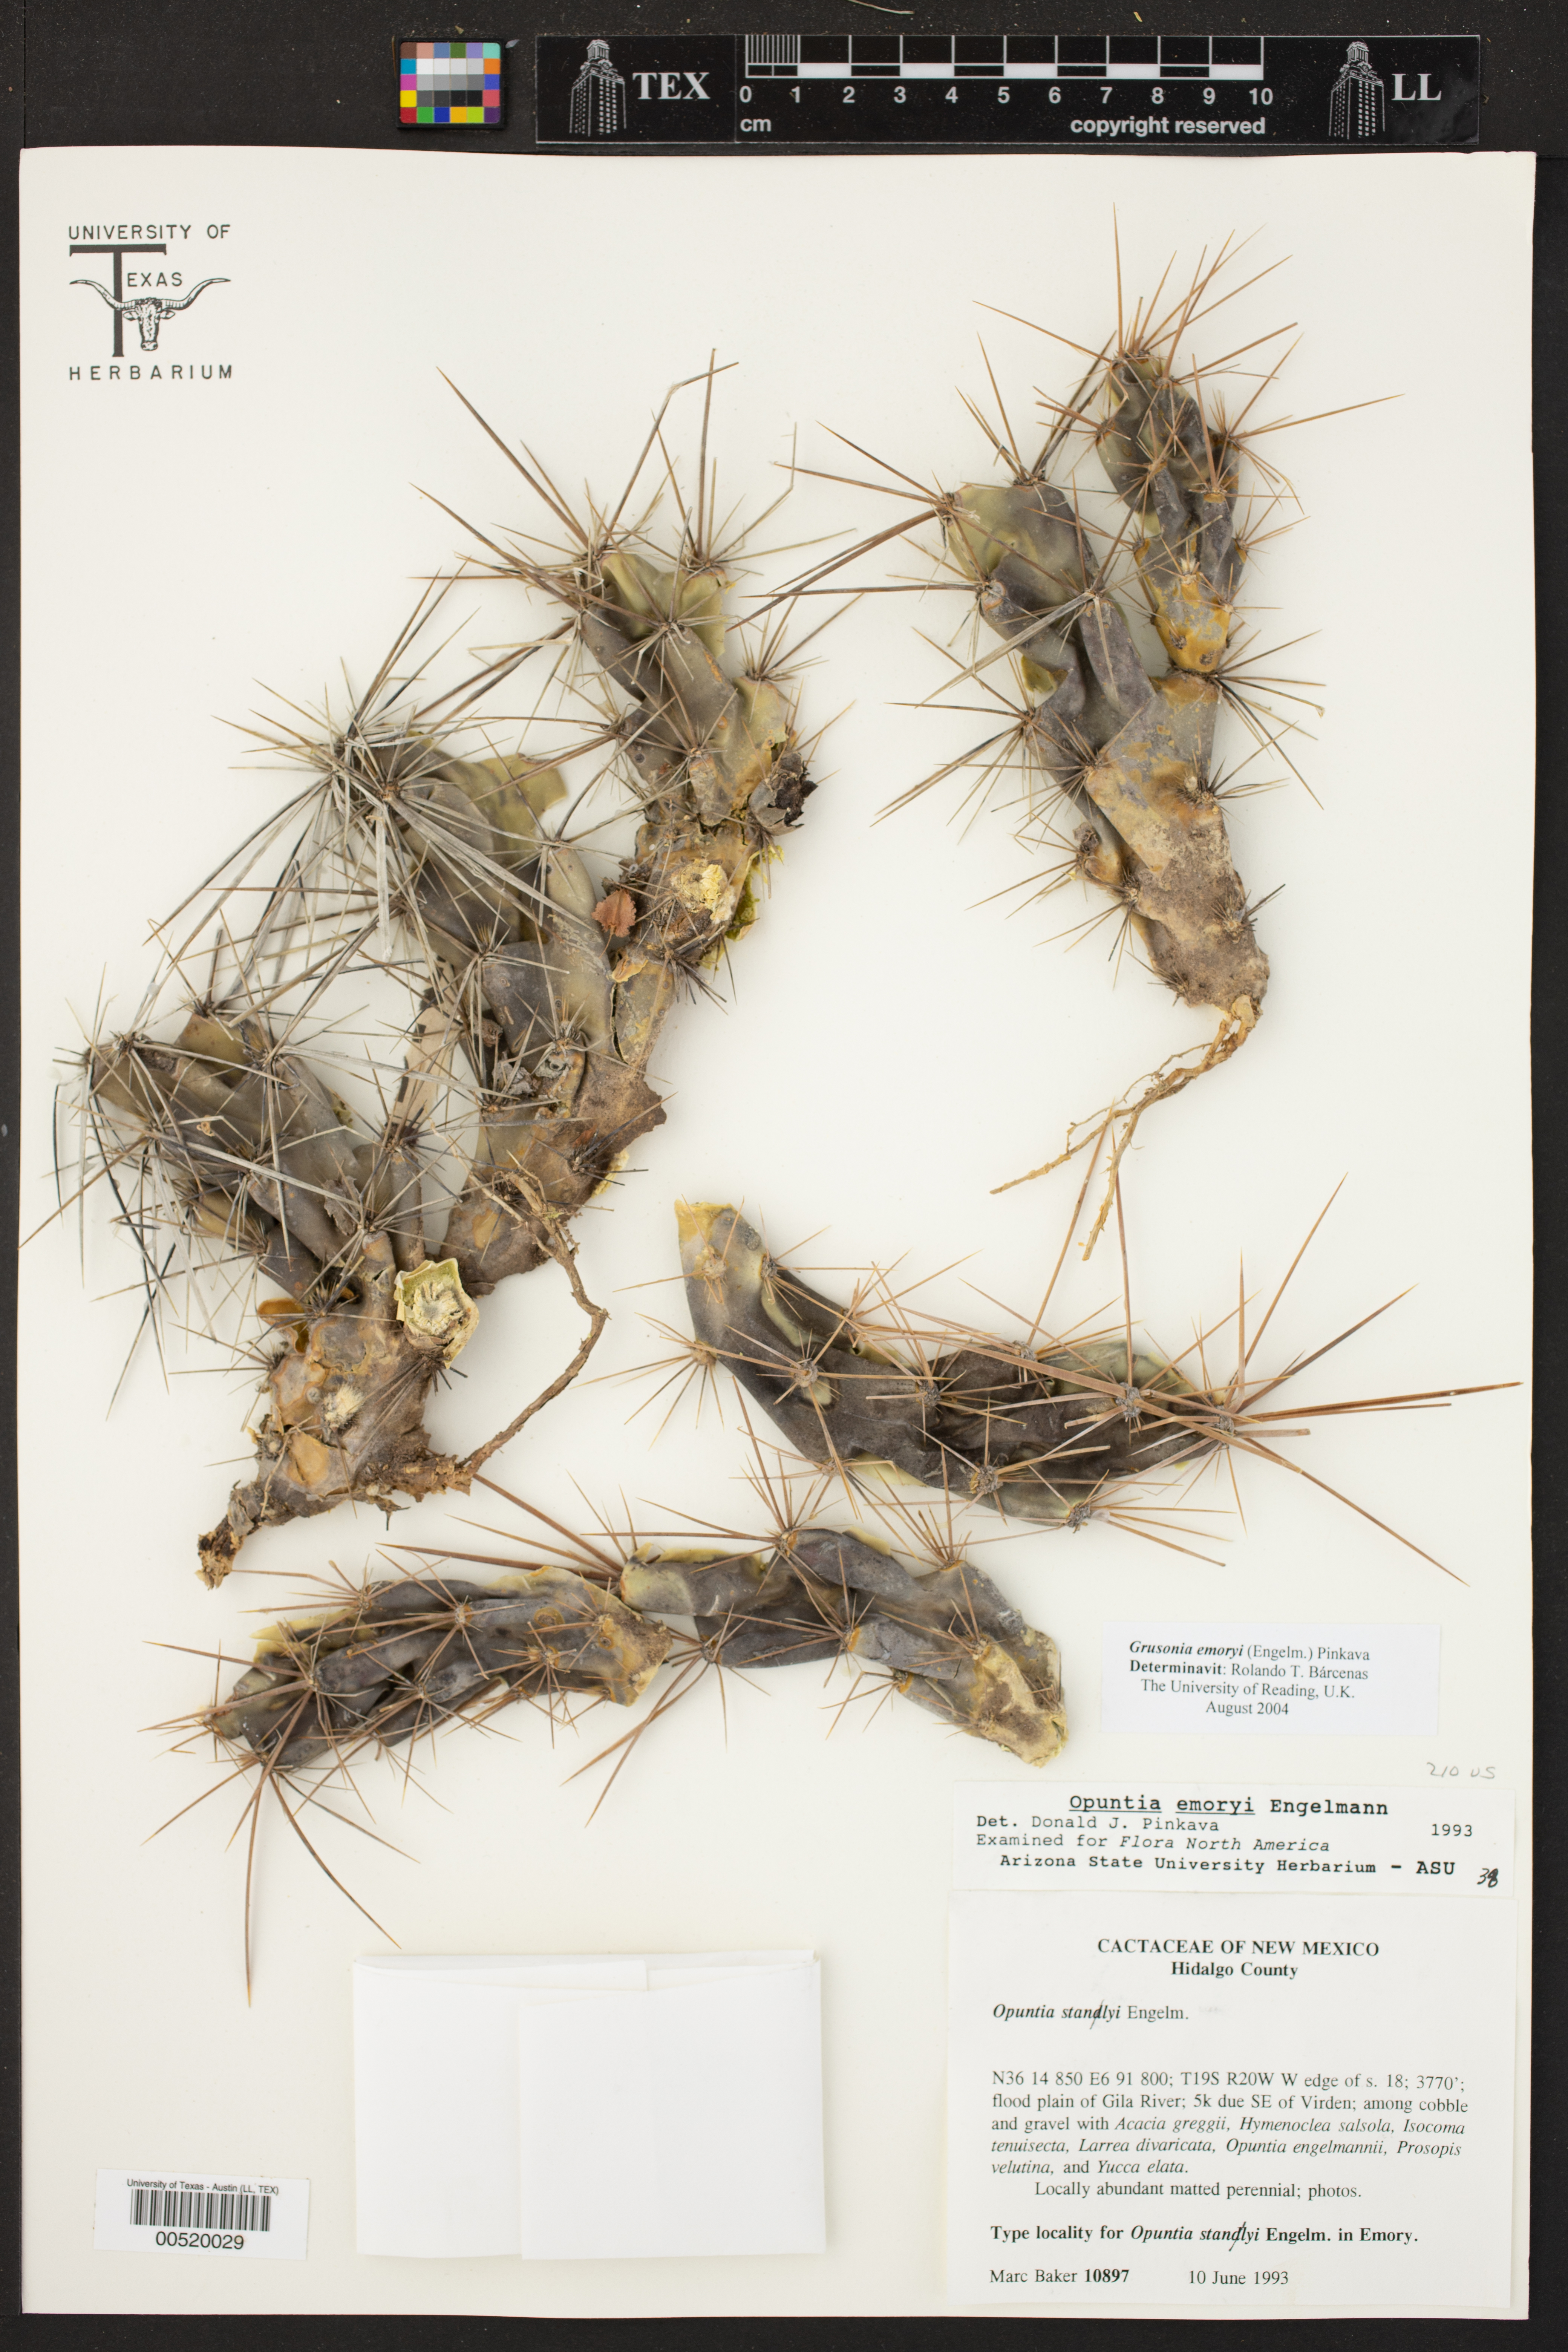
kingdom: Plantae
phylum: Tracheophyta
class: Magnoliopsida
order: Caryophyllales
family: Cactaceae
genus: Grusonia
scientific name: Grusonia emoryi
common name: Stanly's club cholla
